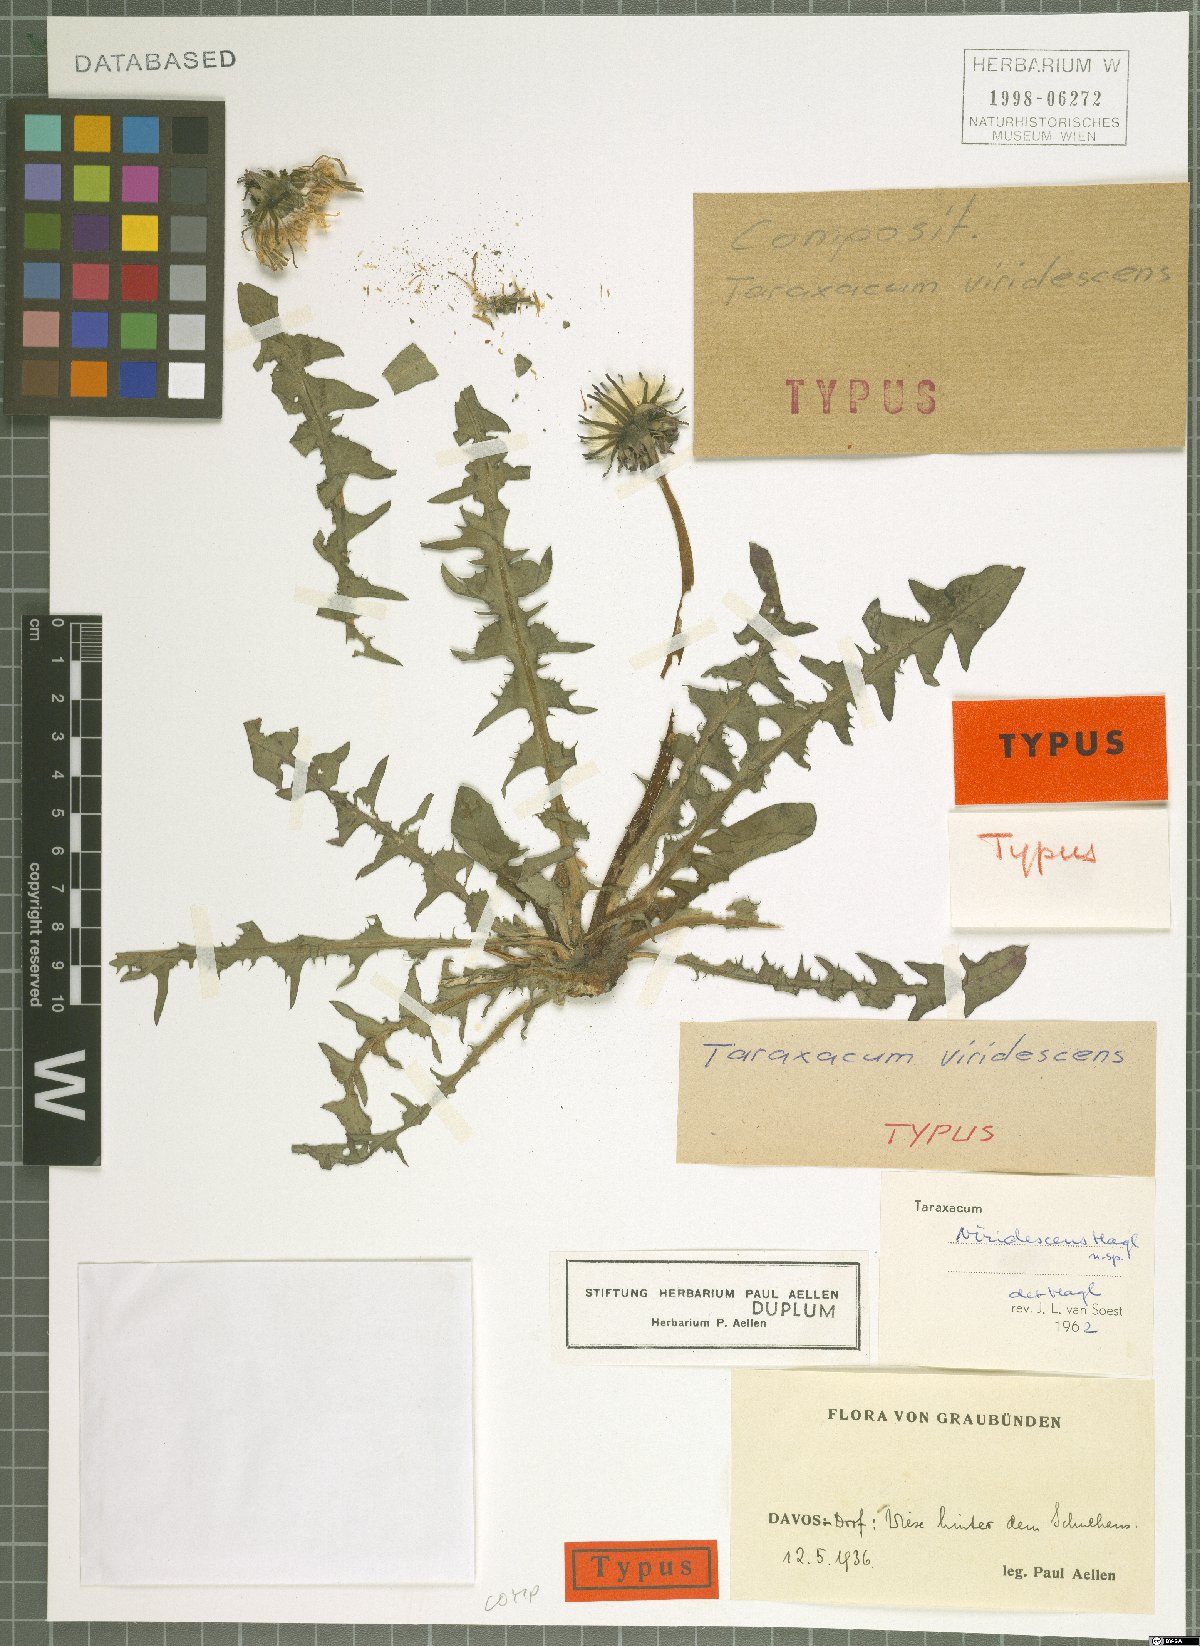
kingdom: Plantae
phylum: Tracheophyta
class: Magnoliopsida
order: Asterales
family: Asteraceae
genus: Taraxacum
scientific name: Taraxacum viridescens
